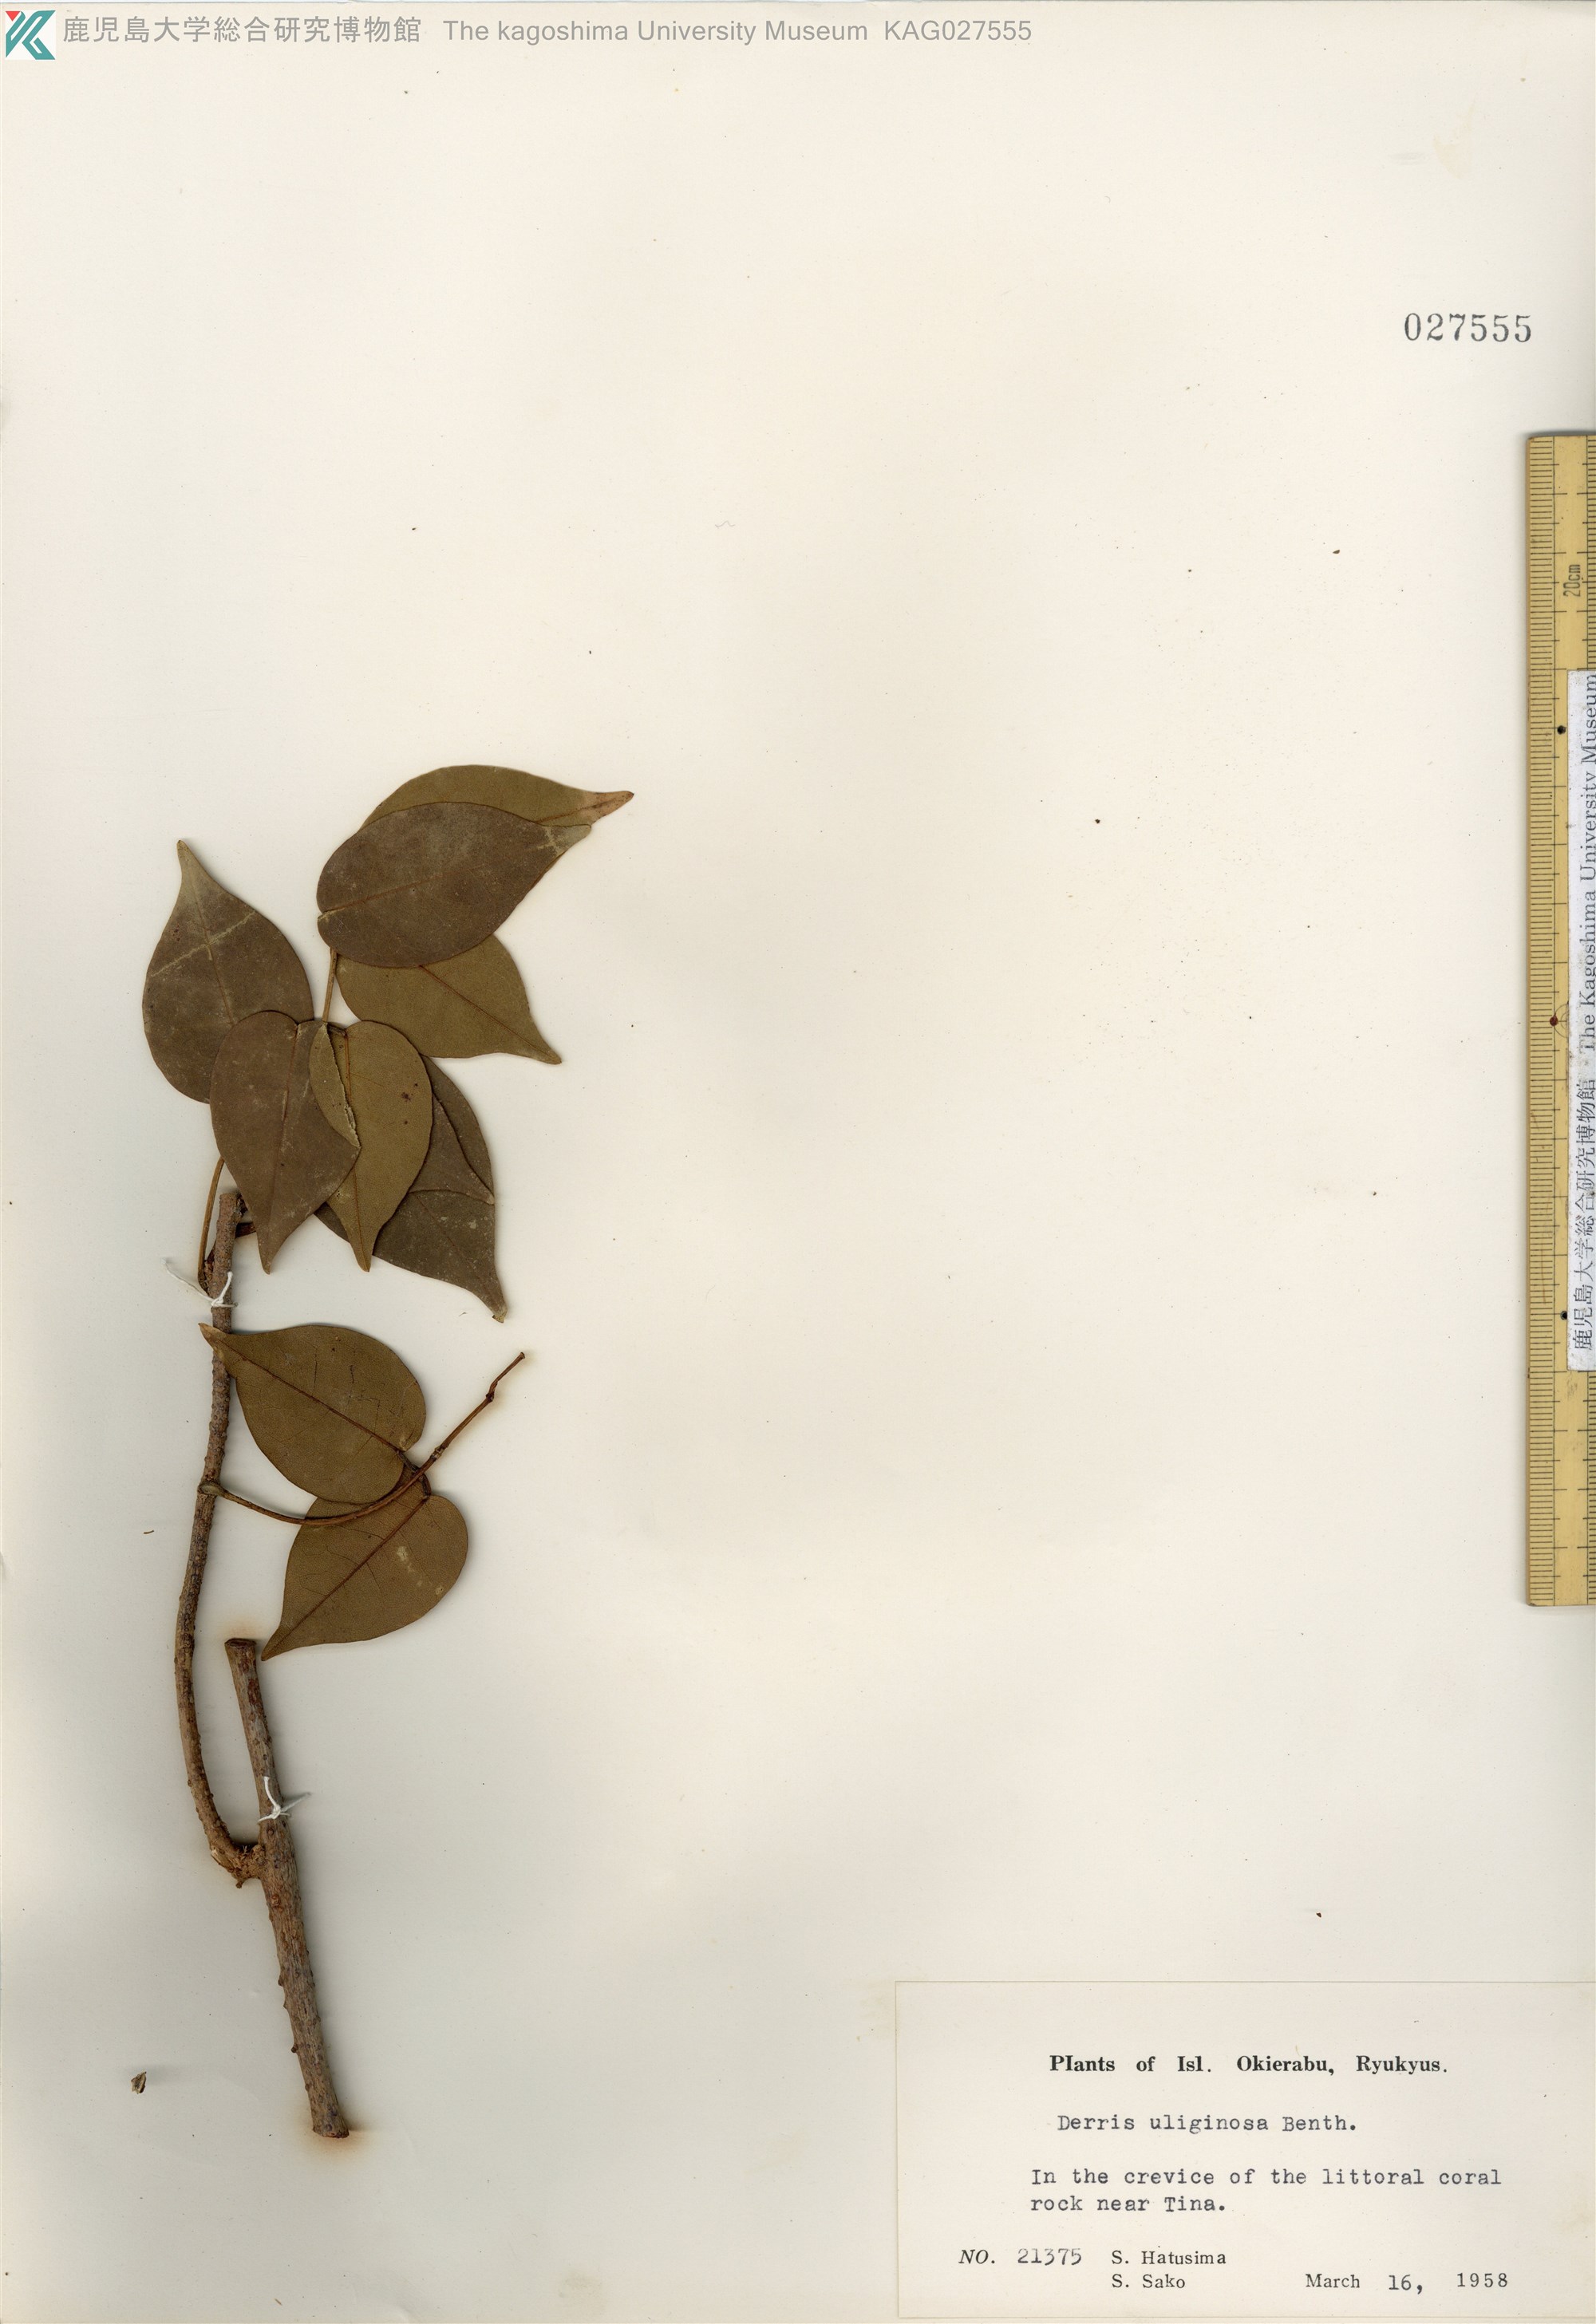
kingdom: Plantae
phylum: Tracheophyta
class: Magnoliopsida
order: Fabales
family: Fabaceae
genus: Derris
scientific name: Derris trifoliata
